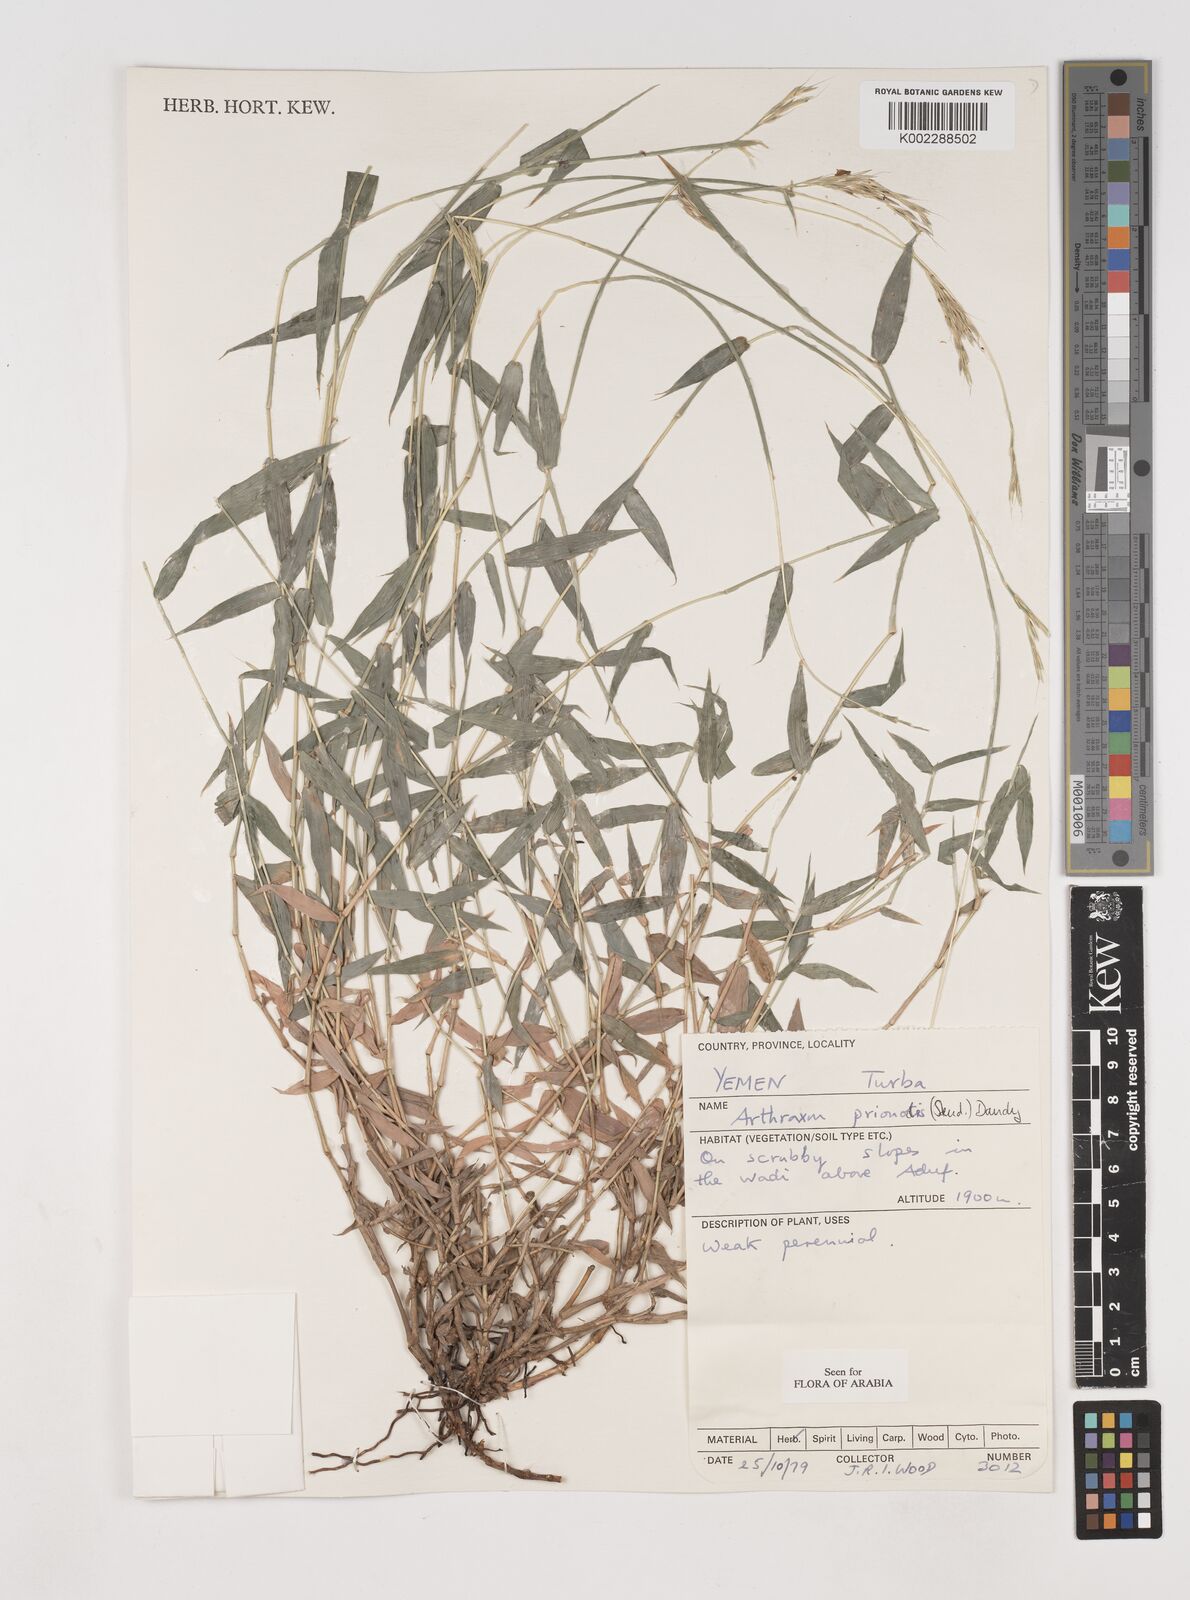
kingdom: Plantae
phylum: Tracheophyta
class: Liliopsida
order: Poales
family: Poaceae
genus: Arthraxon
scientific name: Arthraxon prionodes
